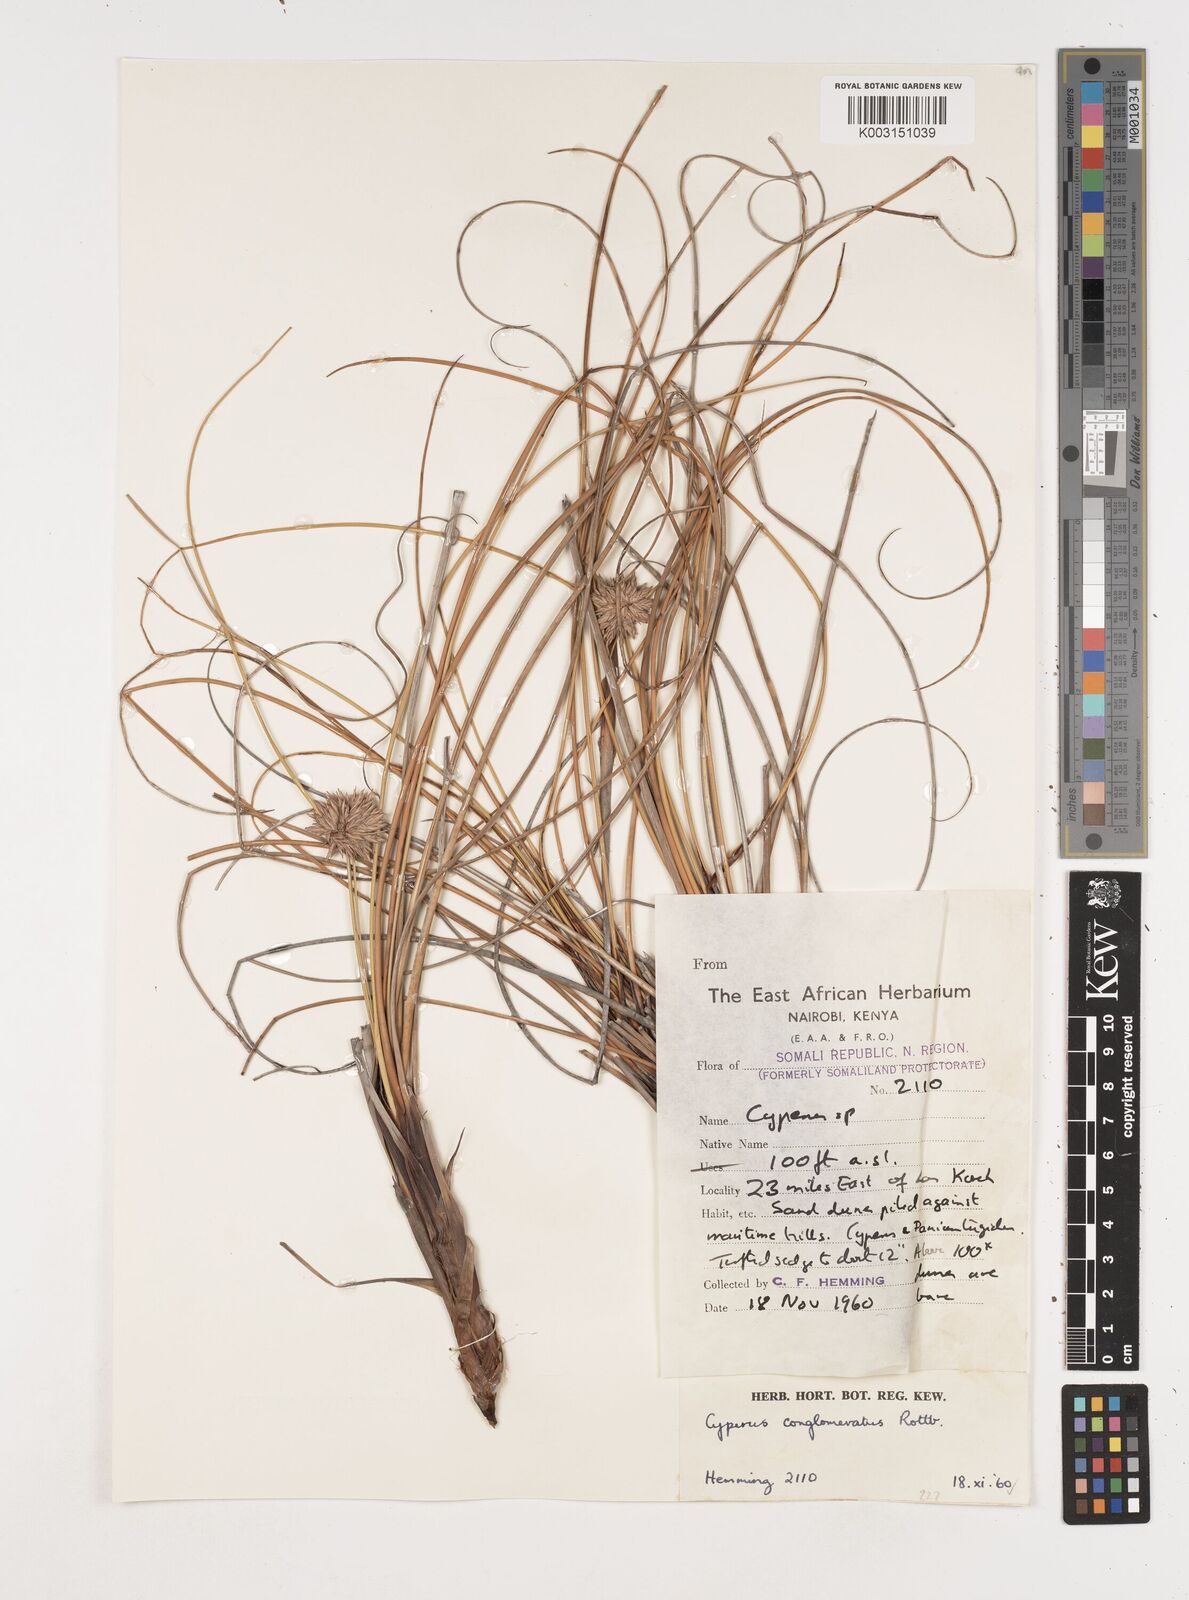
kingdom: Plantae
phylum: Tracheophyta
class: Liliopsida
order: Poales
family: Cyperaceae
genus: Cyperus
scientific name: Cyperus conglomeratus
